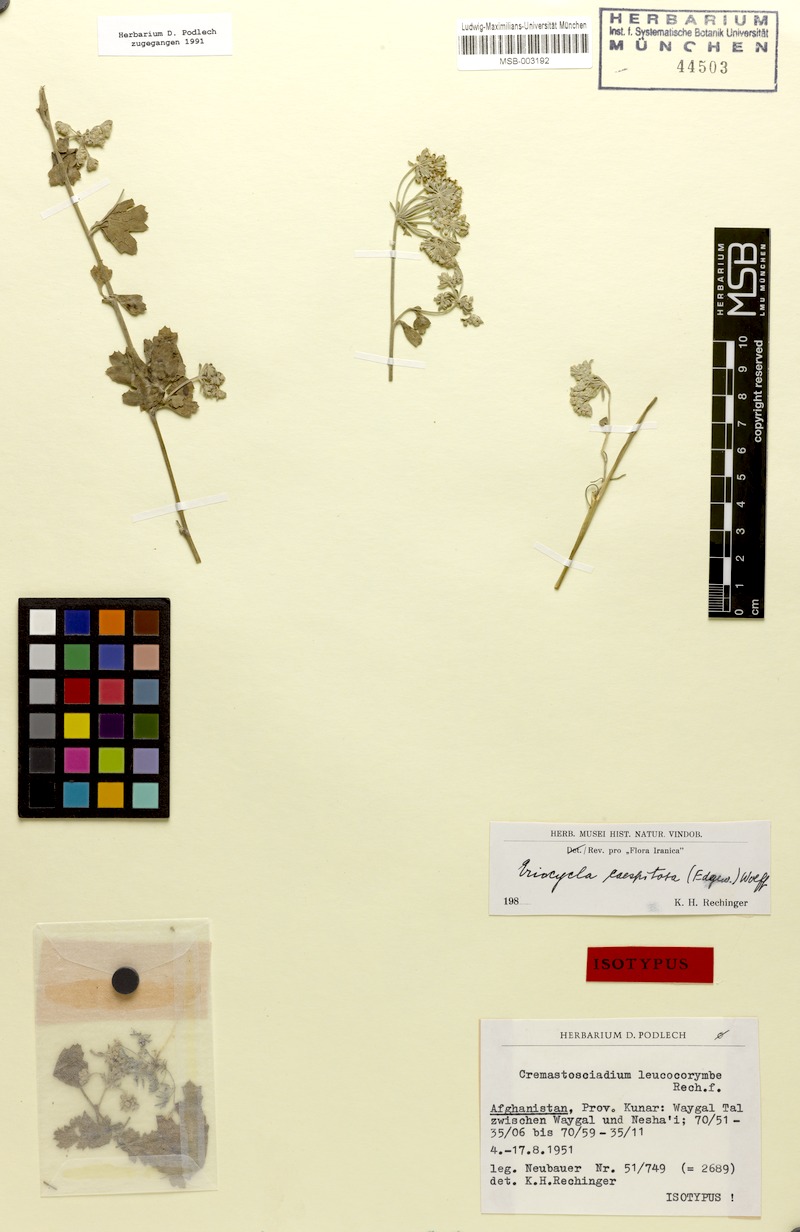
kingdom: Plantae
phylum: Tracheophyta
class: Magnoliopsida
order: Apiales
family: Apiaceae
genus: Seseli
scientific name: Seseli petrosciadium
